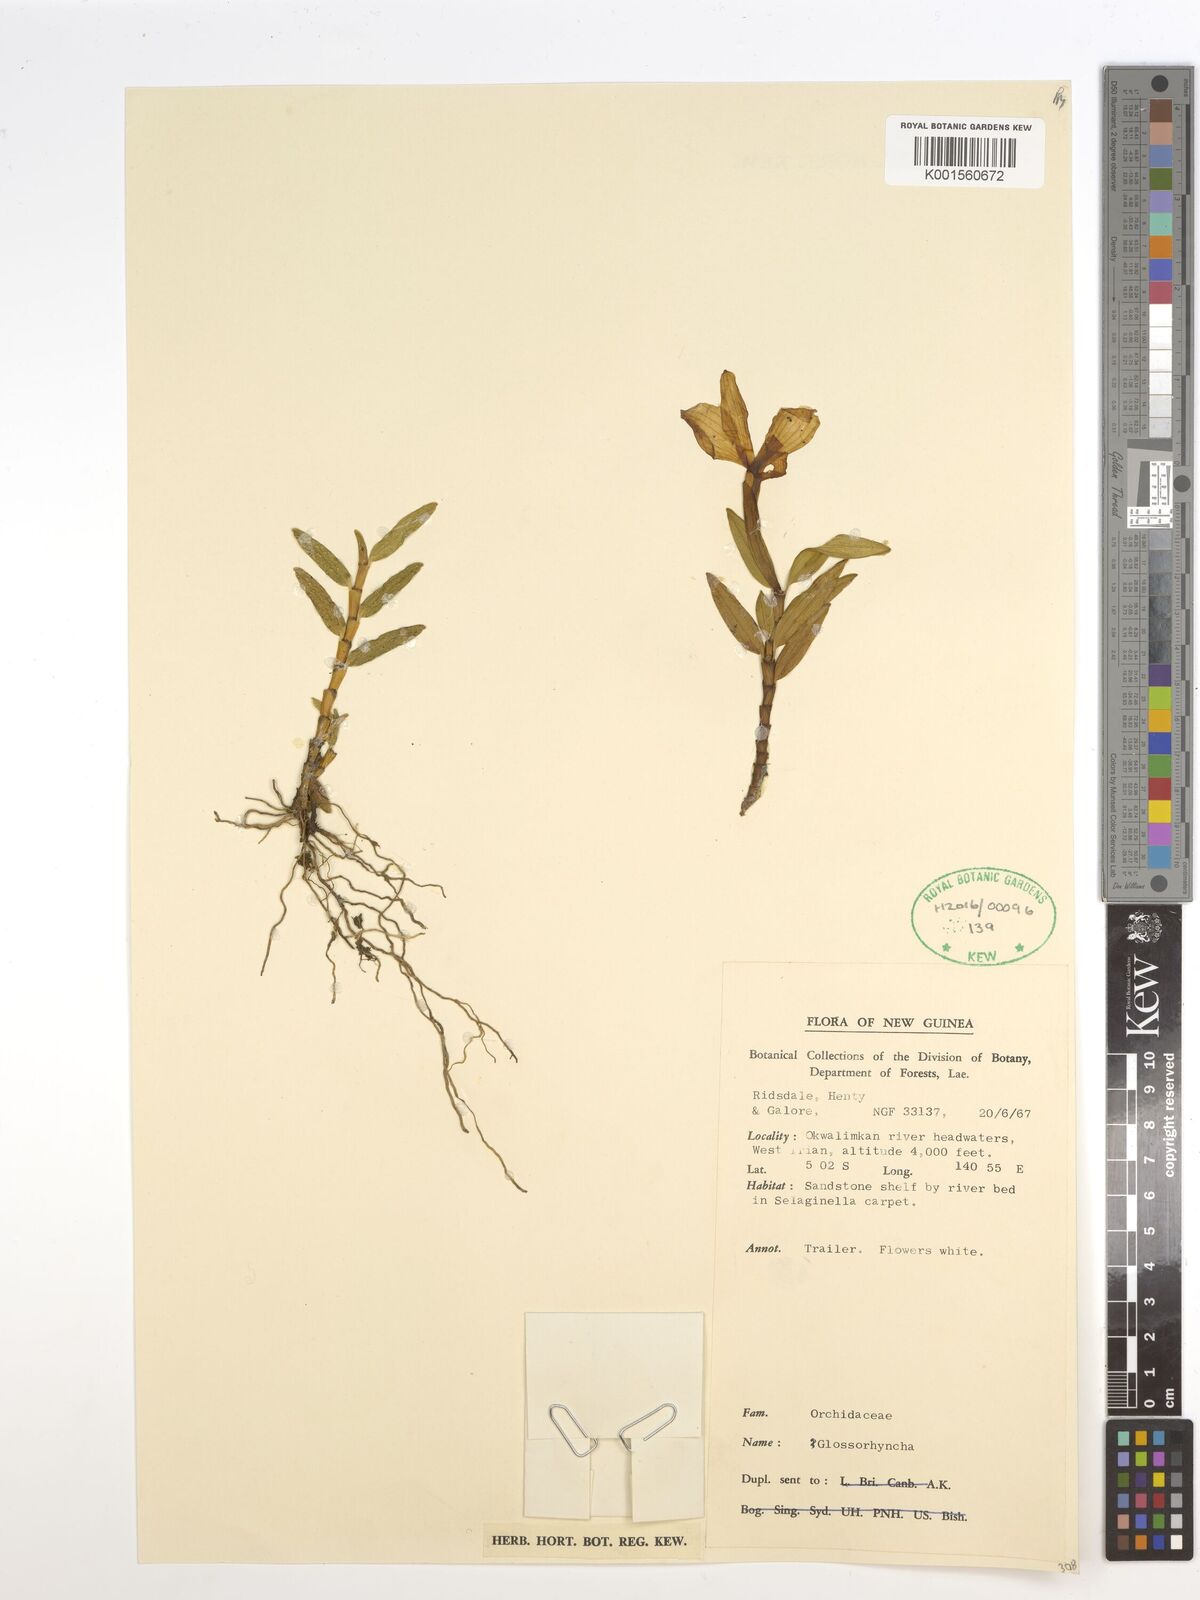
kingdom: Plantae
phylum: Tracheophyta
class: Liliopsida
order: Asparagales
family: Orchidaceae
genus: Glomera
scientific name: Glomera
